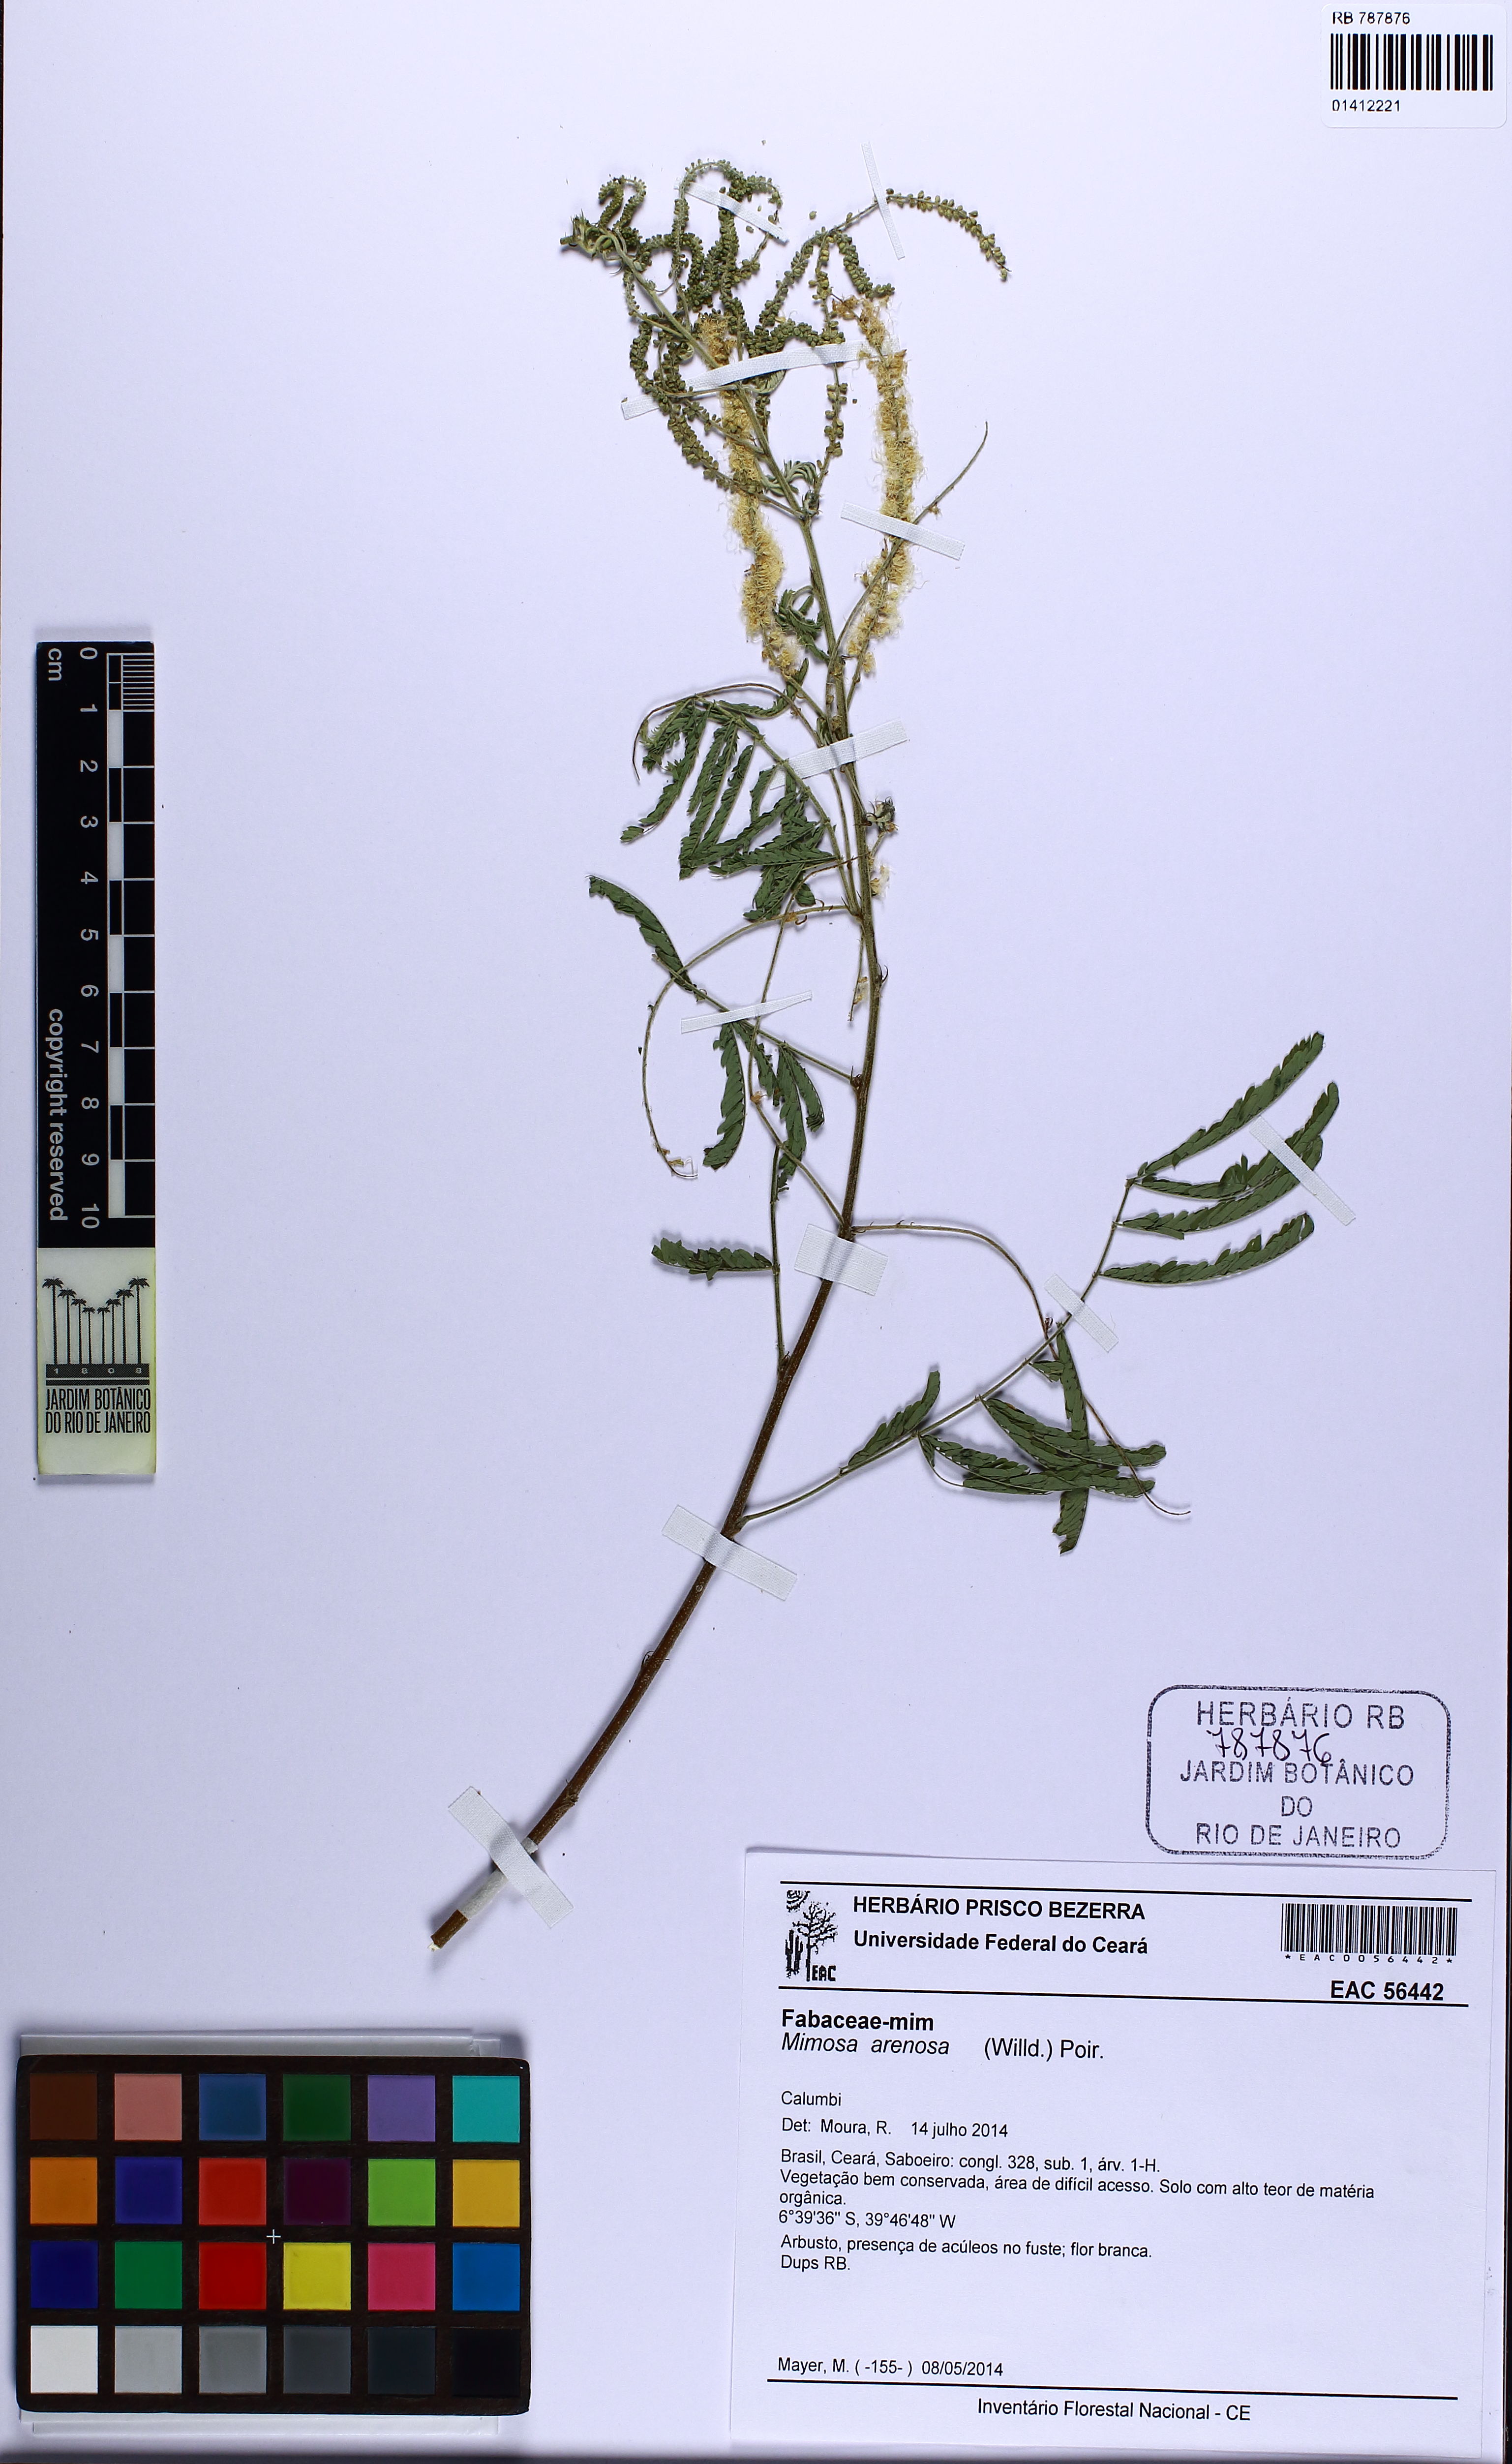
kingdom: Plantae
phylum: Tracheophyta
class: Magnoliopsida
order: Fabales
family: Fabaceae
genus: Mimosa
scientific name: Mimosa arenosa
